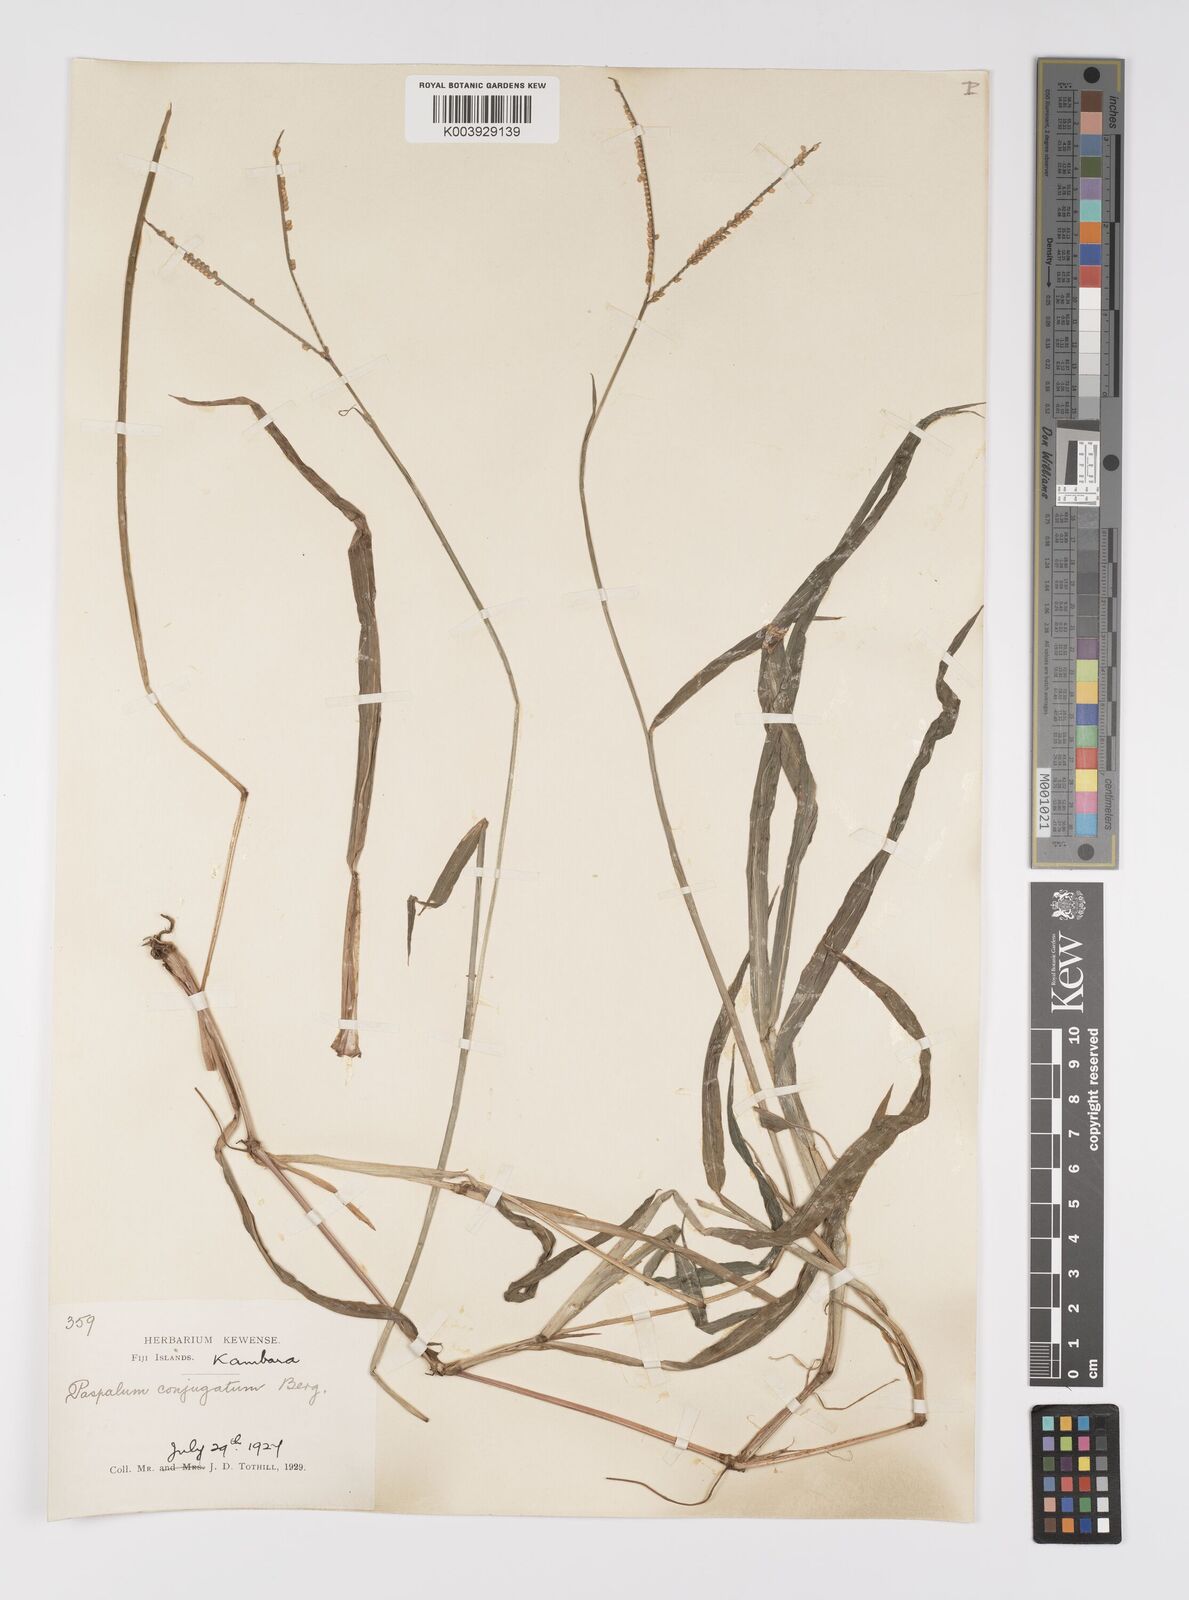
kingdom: Plantae
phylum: Tracheophyta
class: Liliopsida
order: Poales
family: Poaceae
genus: Paspalum
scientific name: Paspalum conjugatum
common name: Hilograss
